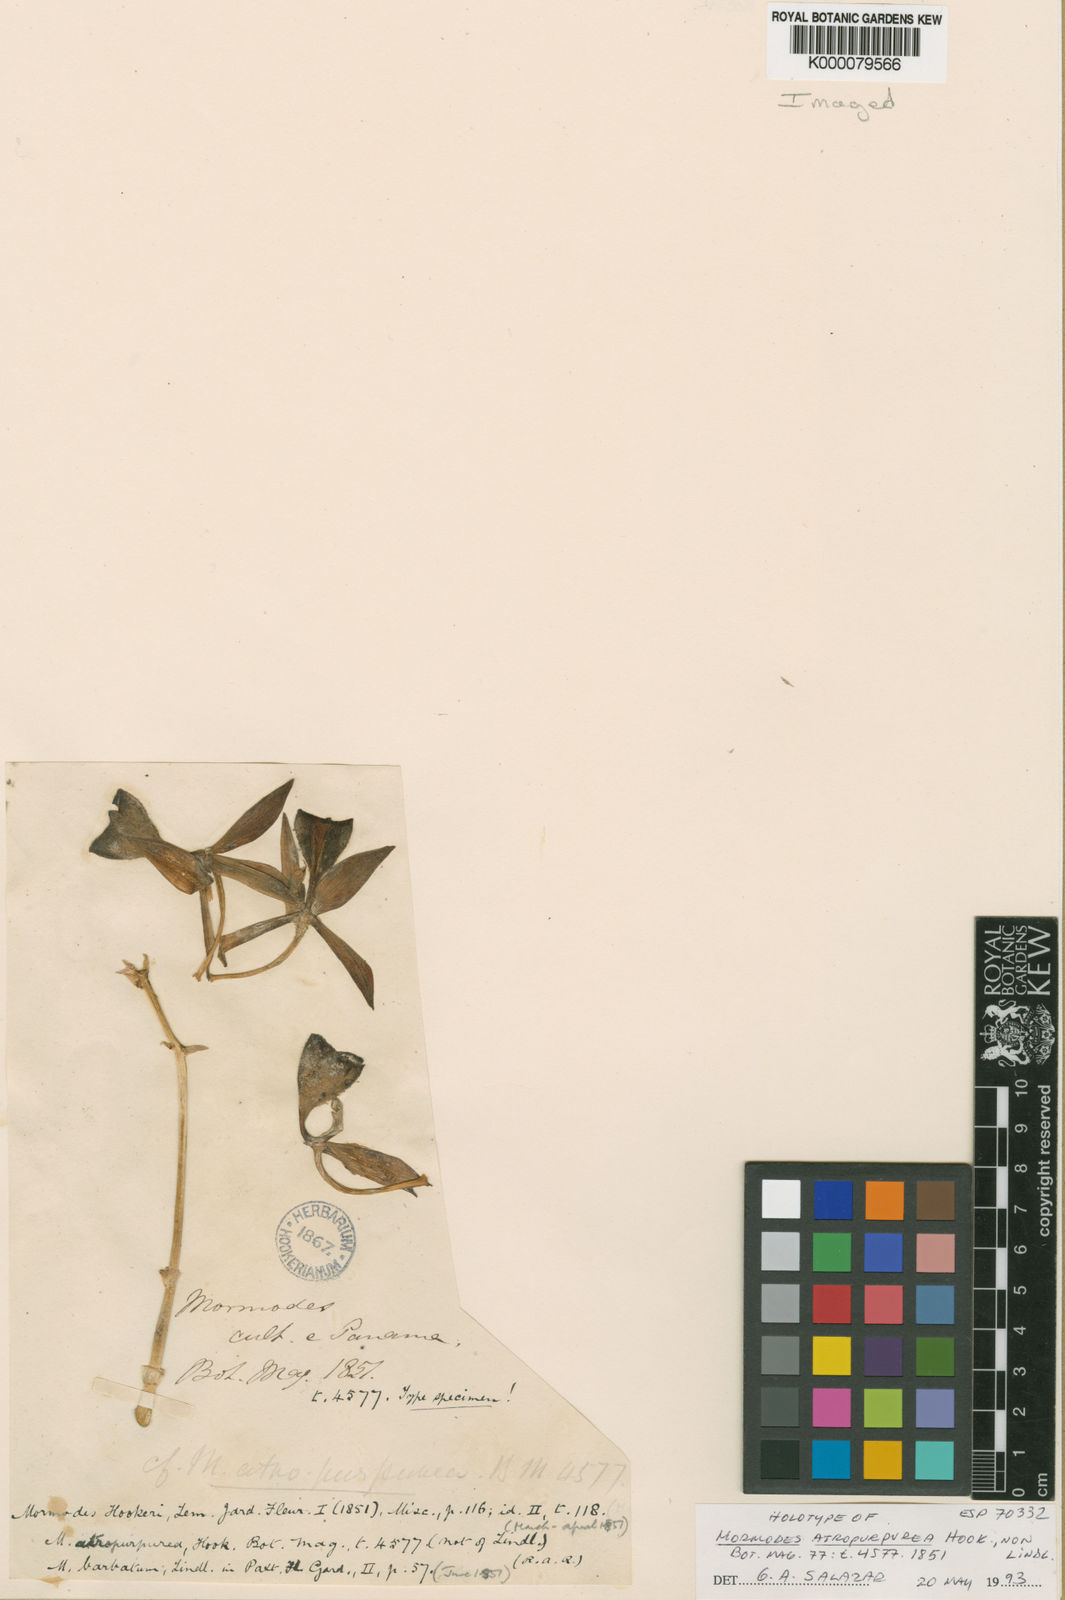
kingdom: Plantae
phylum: Tracheophyta
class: Liliopsida
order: Asparagales
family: Orchidaceae
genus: Mormodes
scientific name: Mormodes atropurpurea
